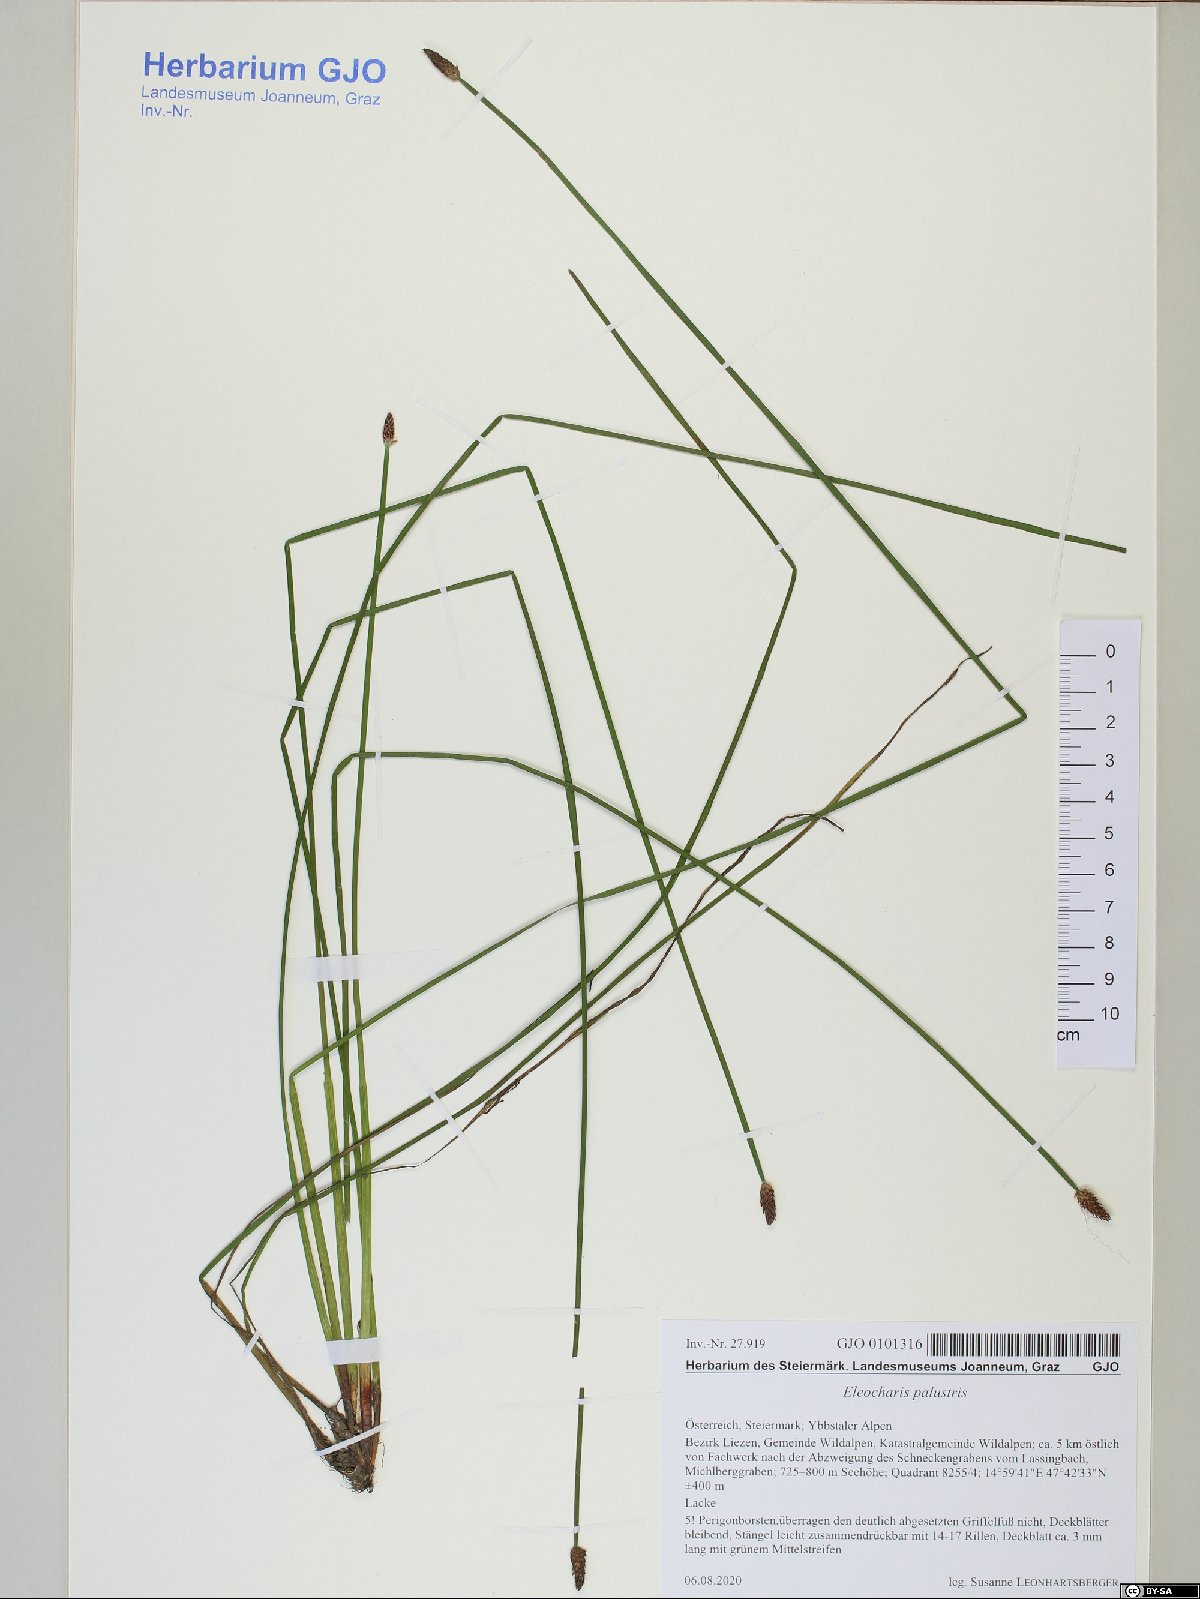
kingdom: Plantae
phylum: Tracheophyta
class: Liliopsida
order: Poales
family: Cyperaceae
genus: Eleocharis
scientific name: Eleocharis palustris
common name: Common spike-rush
